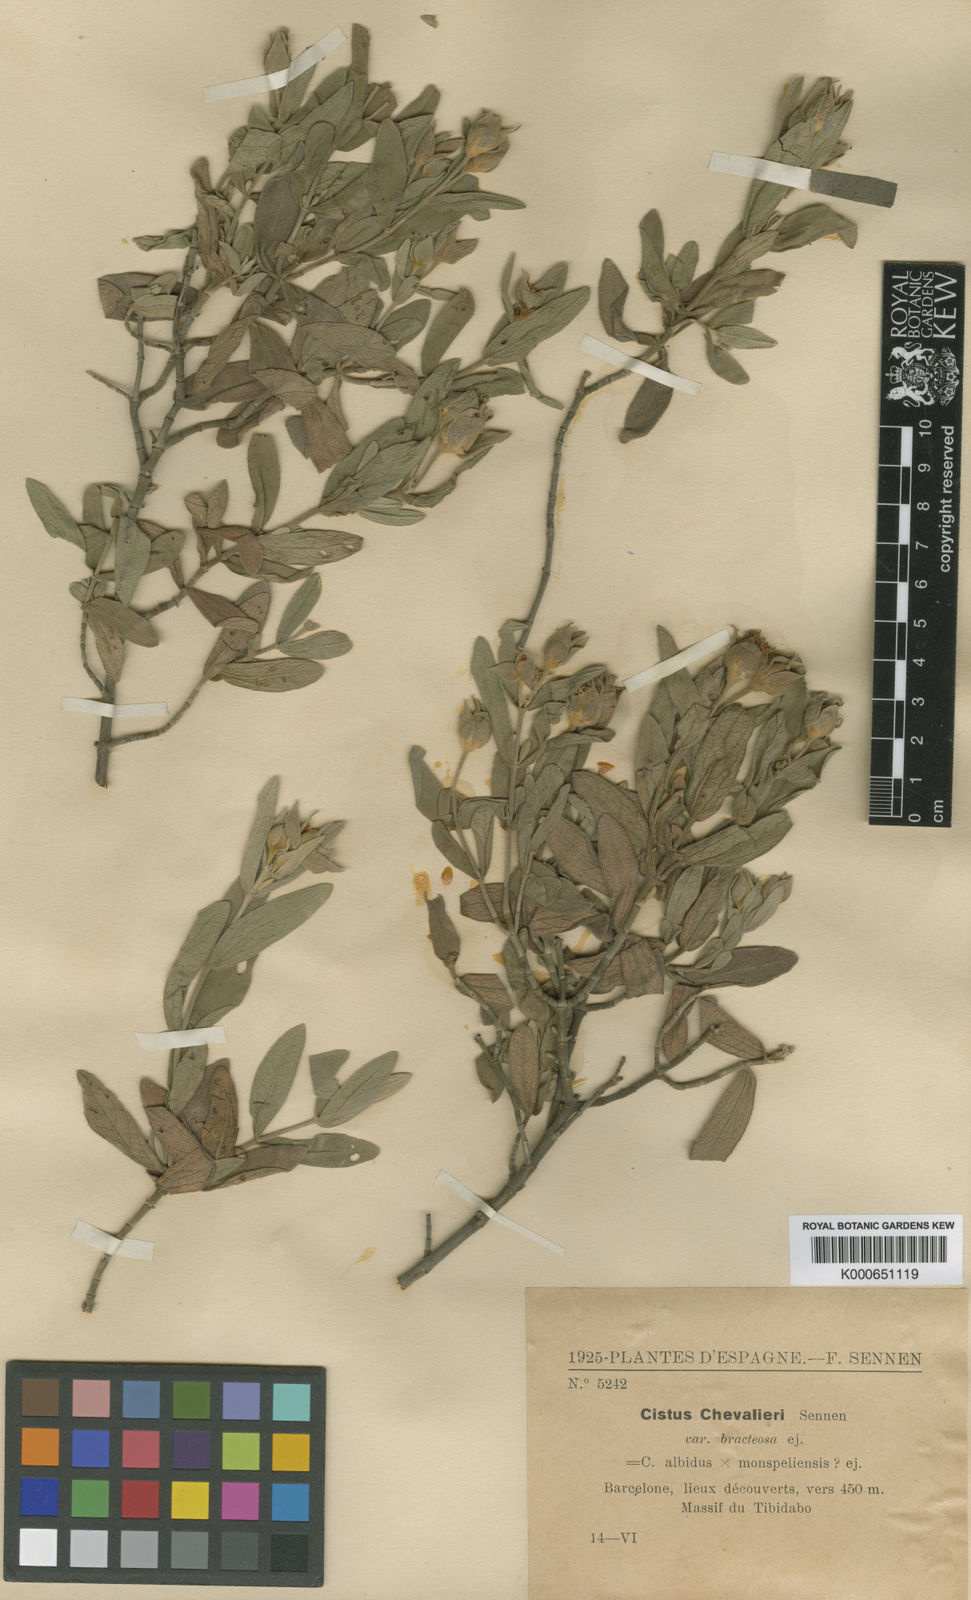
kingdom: Plantae
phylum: Tracheophyta
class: Magnoliopsida
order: Malvales
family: Cistaceae
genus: Cistus
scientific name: Cistus albidus
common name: White-leaf rock-rose
